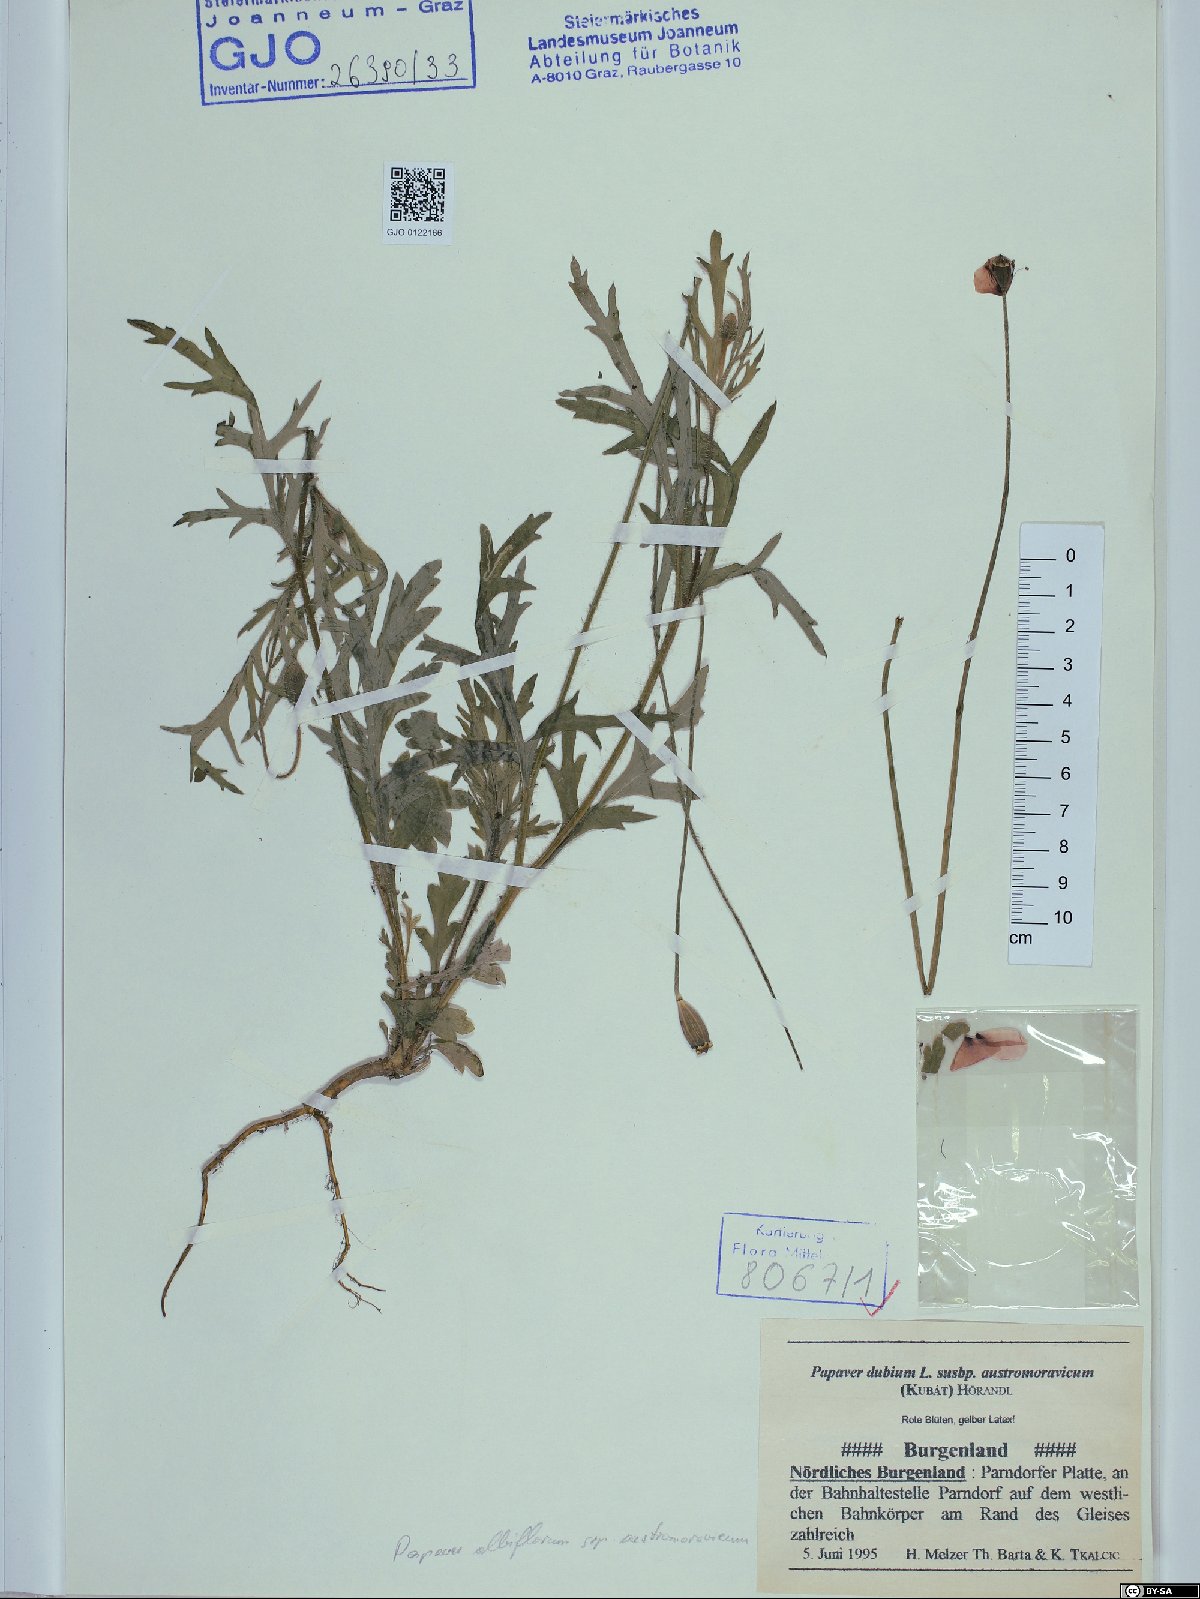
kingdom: Plantae
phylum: Tracheophyta
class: Magnoliopsida
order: Ranunculales
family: Papaveraceae
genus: Papaver
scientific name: Papaver dubium
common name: Long-headed poppy
